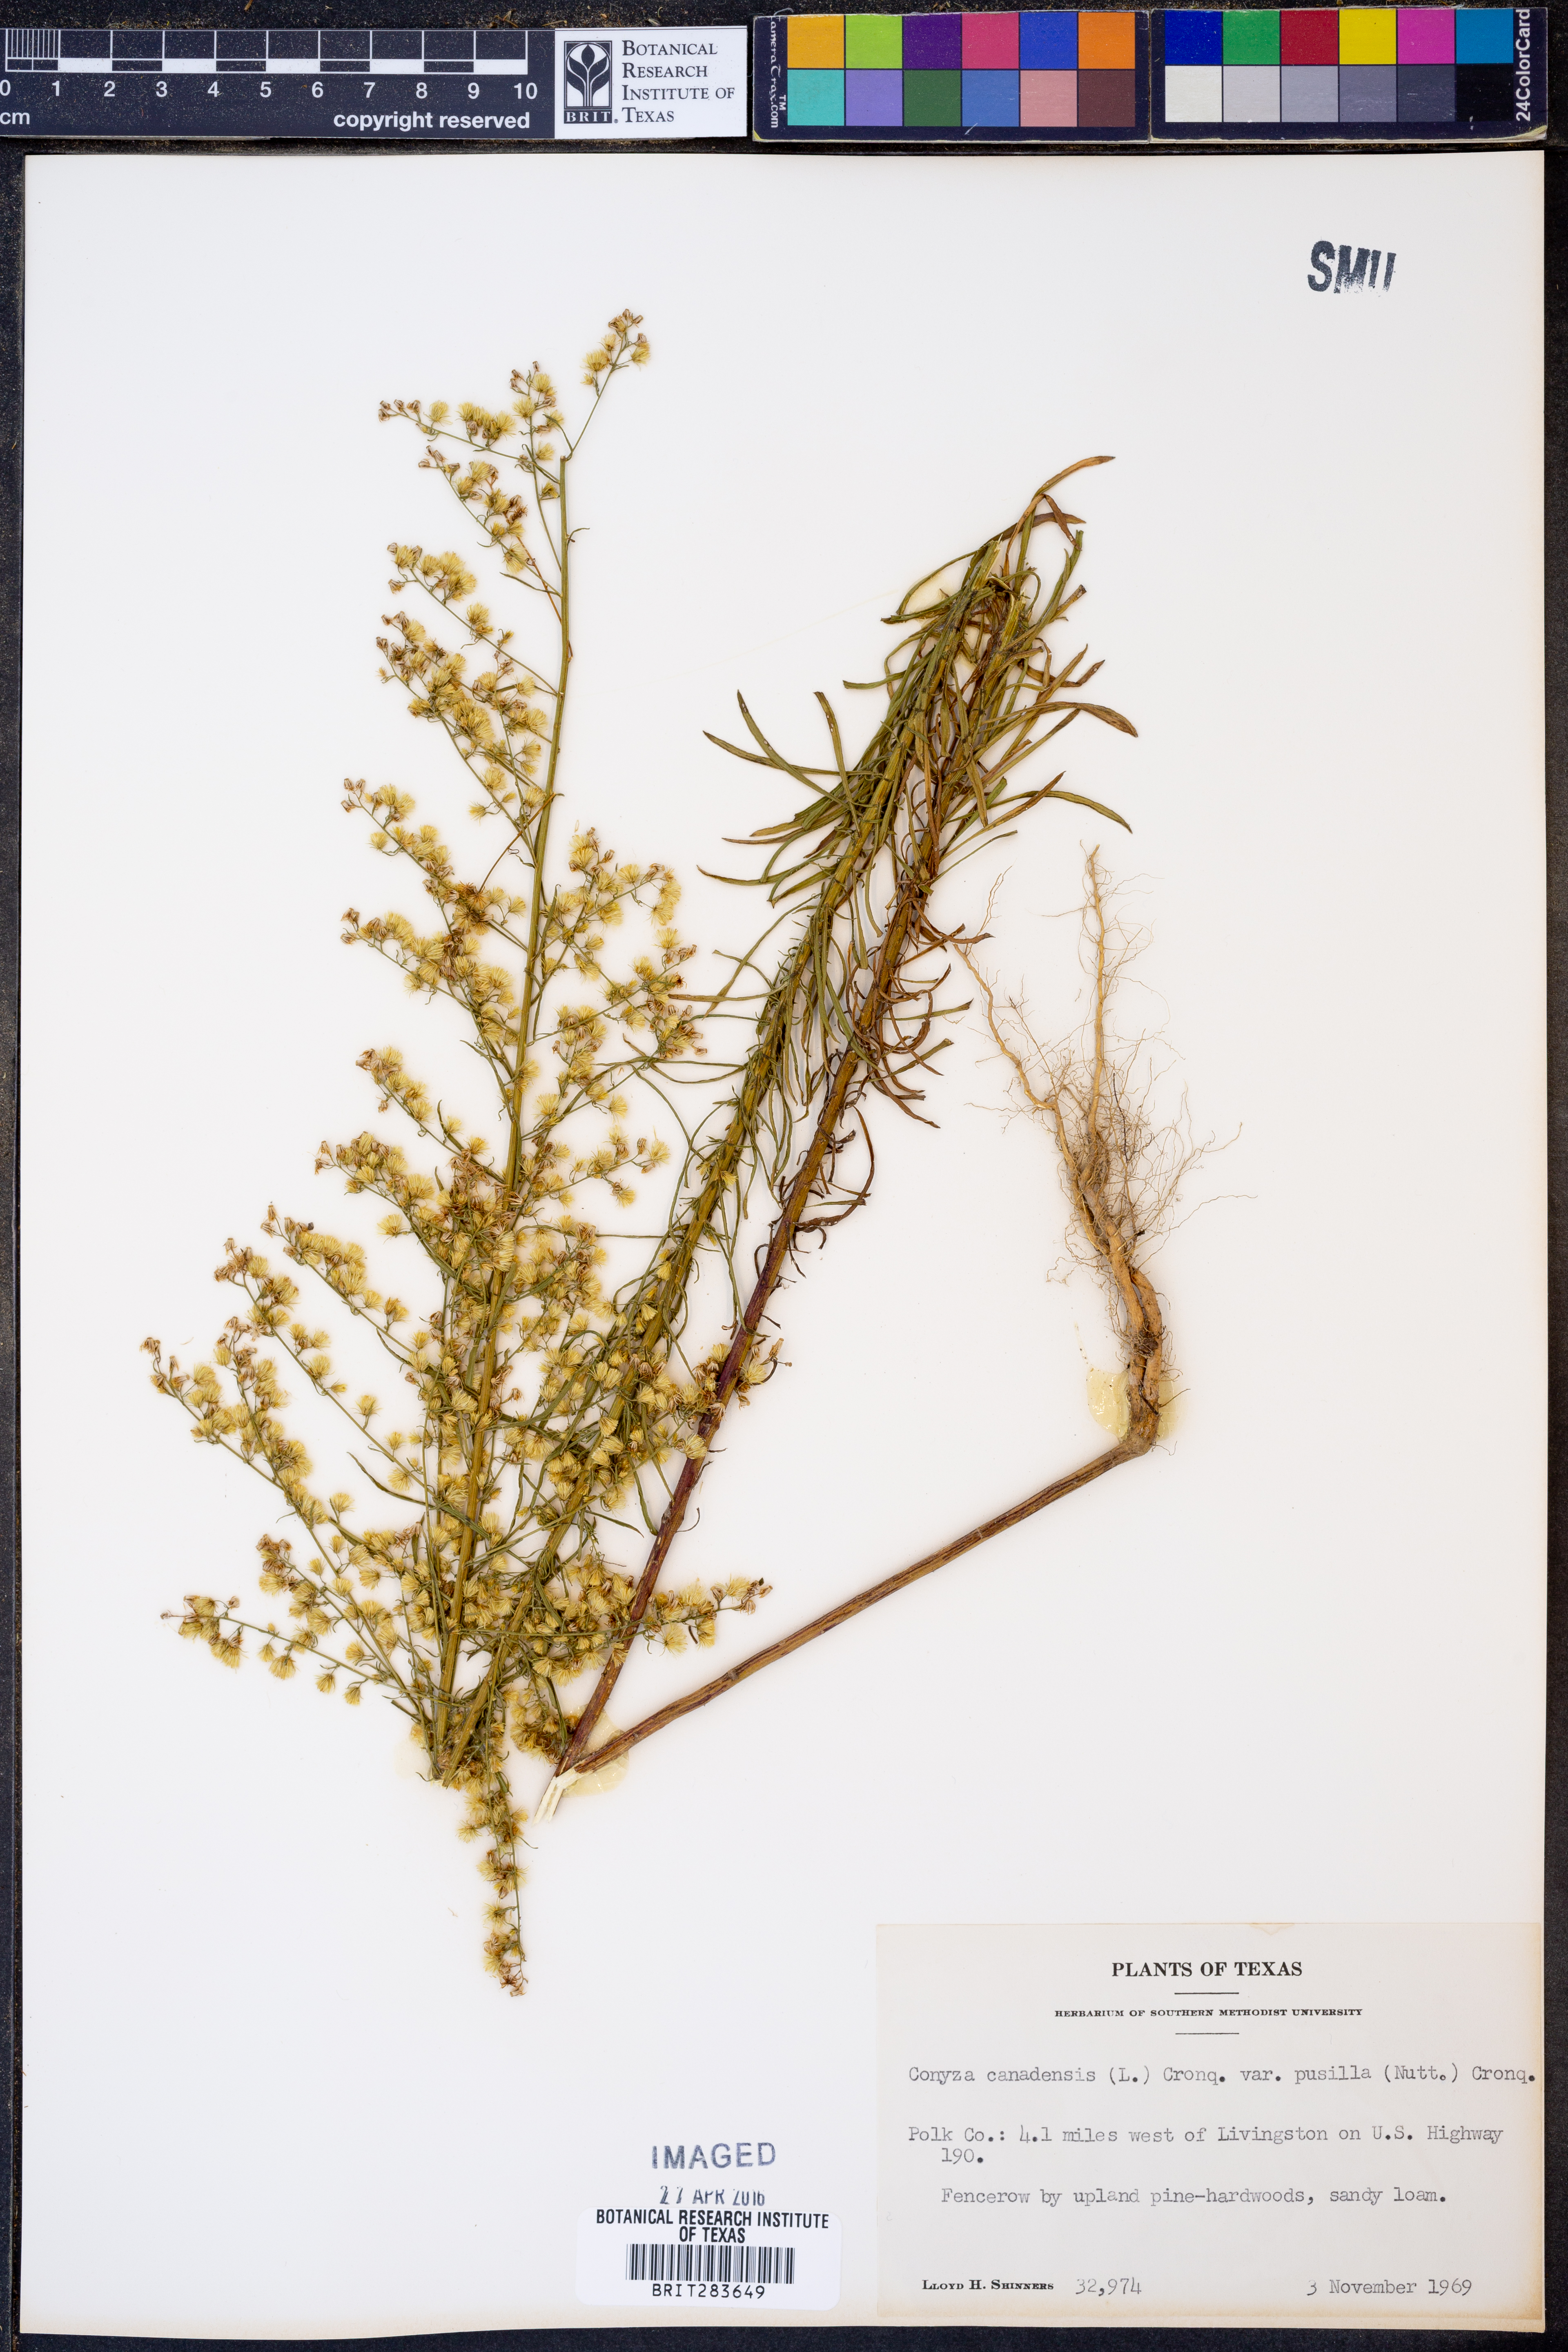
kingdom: Plantae
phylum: Tracheophyta
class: Magnoliopsida
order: Asterales
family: Asteraceae
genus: Erigeron
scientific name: Erigeron canadensis
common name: Canadian fleabane
